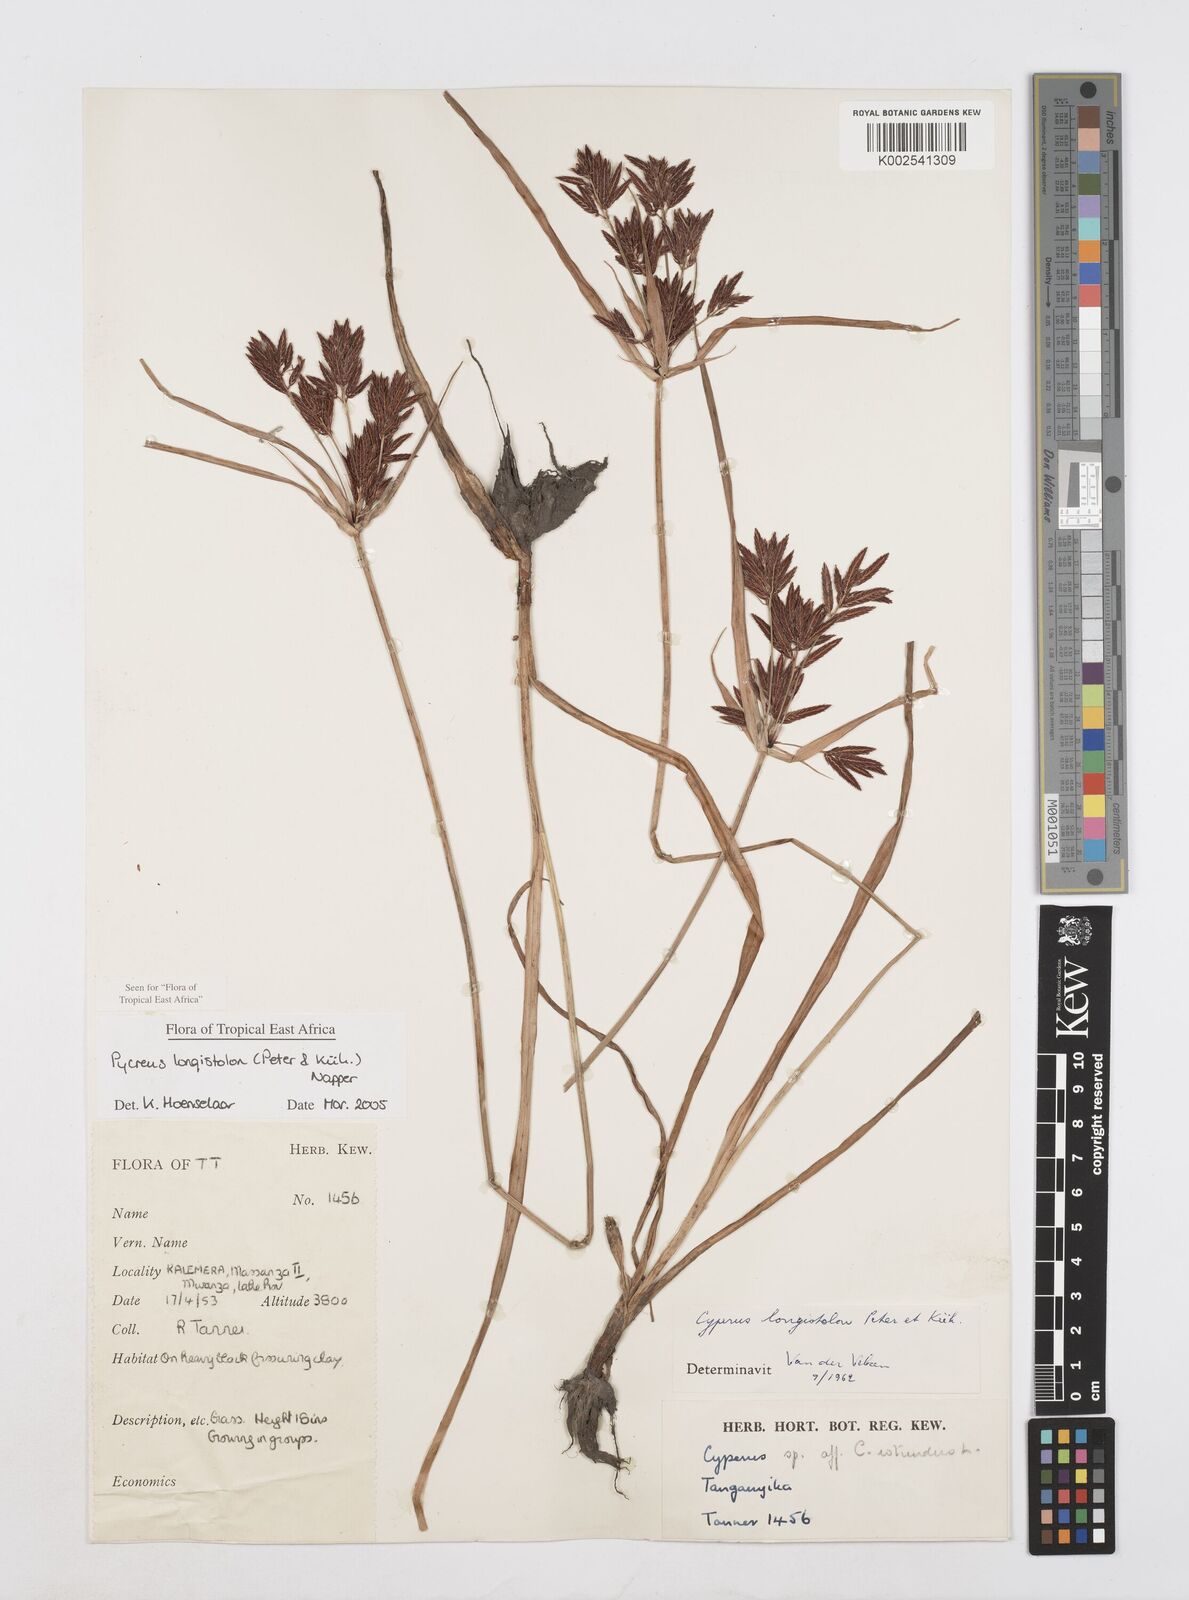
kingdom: Plantae
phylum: Tracheophyta
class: Liliopsida
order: Poales
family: Cyperaceae
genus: Cyperus
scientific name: Cyperus chrysanthus
